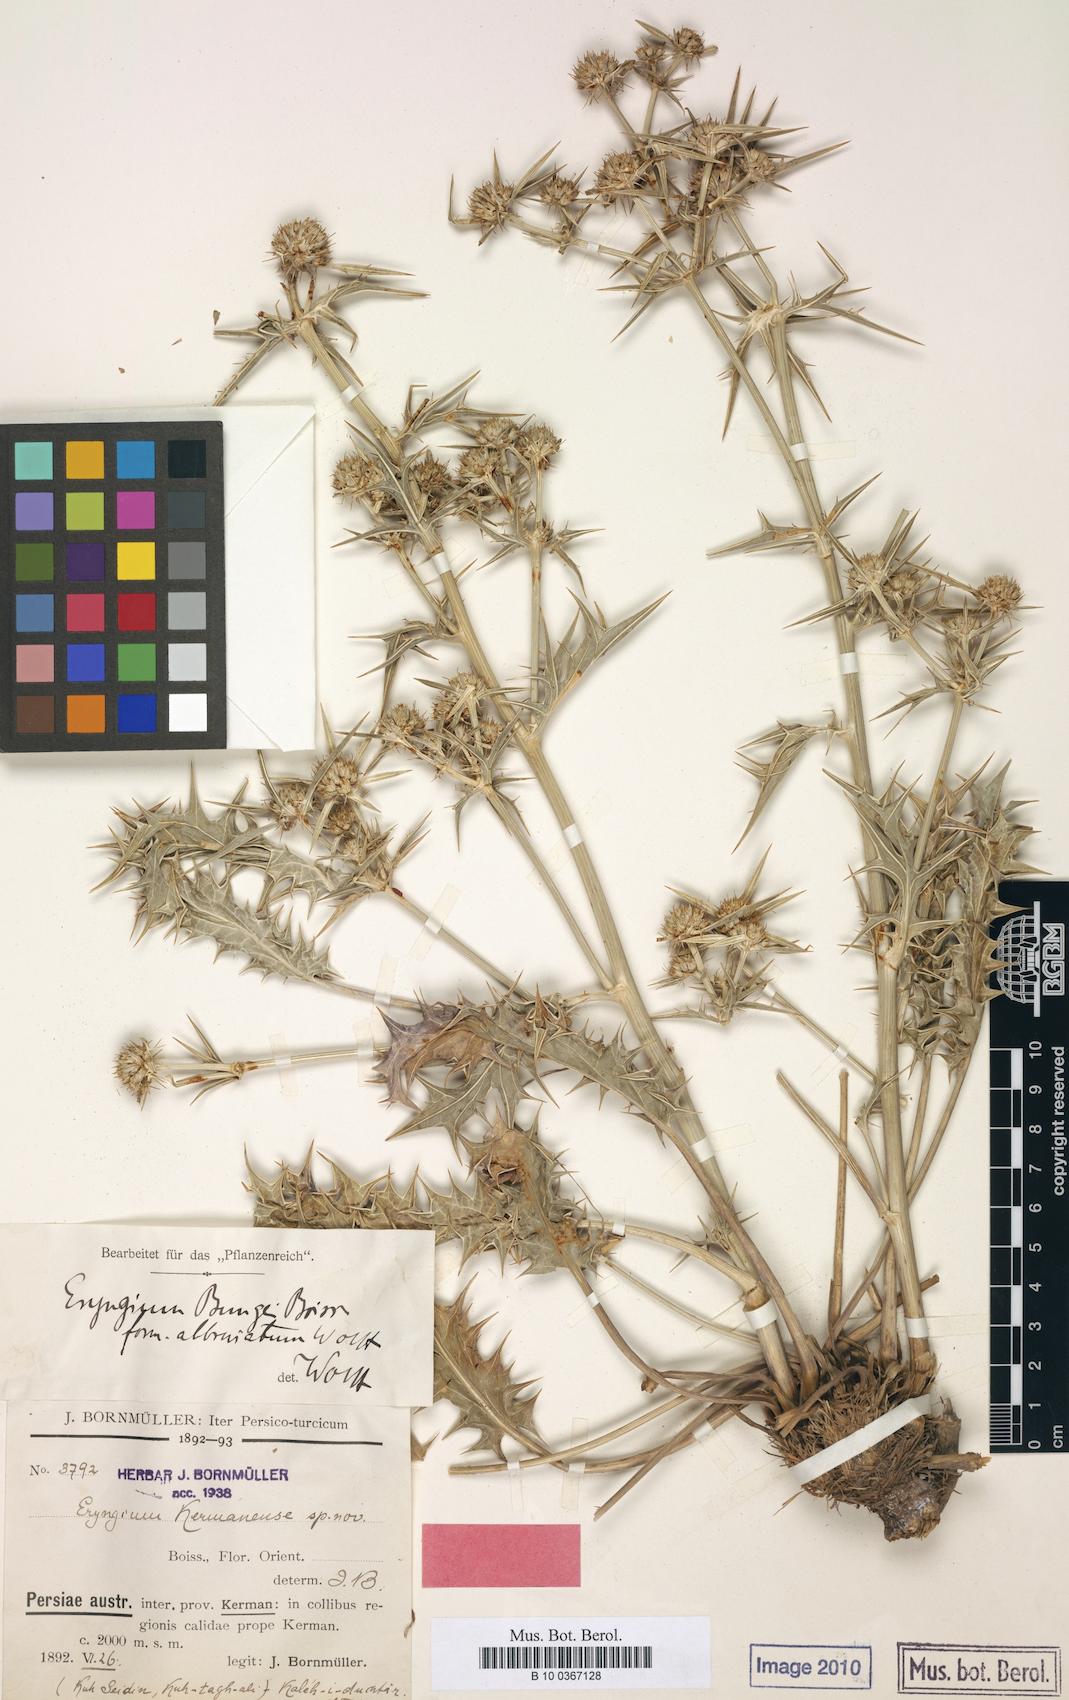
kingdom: Plantae
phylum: Tracheophyta
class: Magnoliopsida
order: Apiales
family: Apiaceae
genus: Eryngium
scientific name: Eryngium bungei
